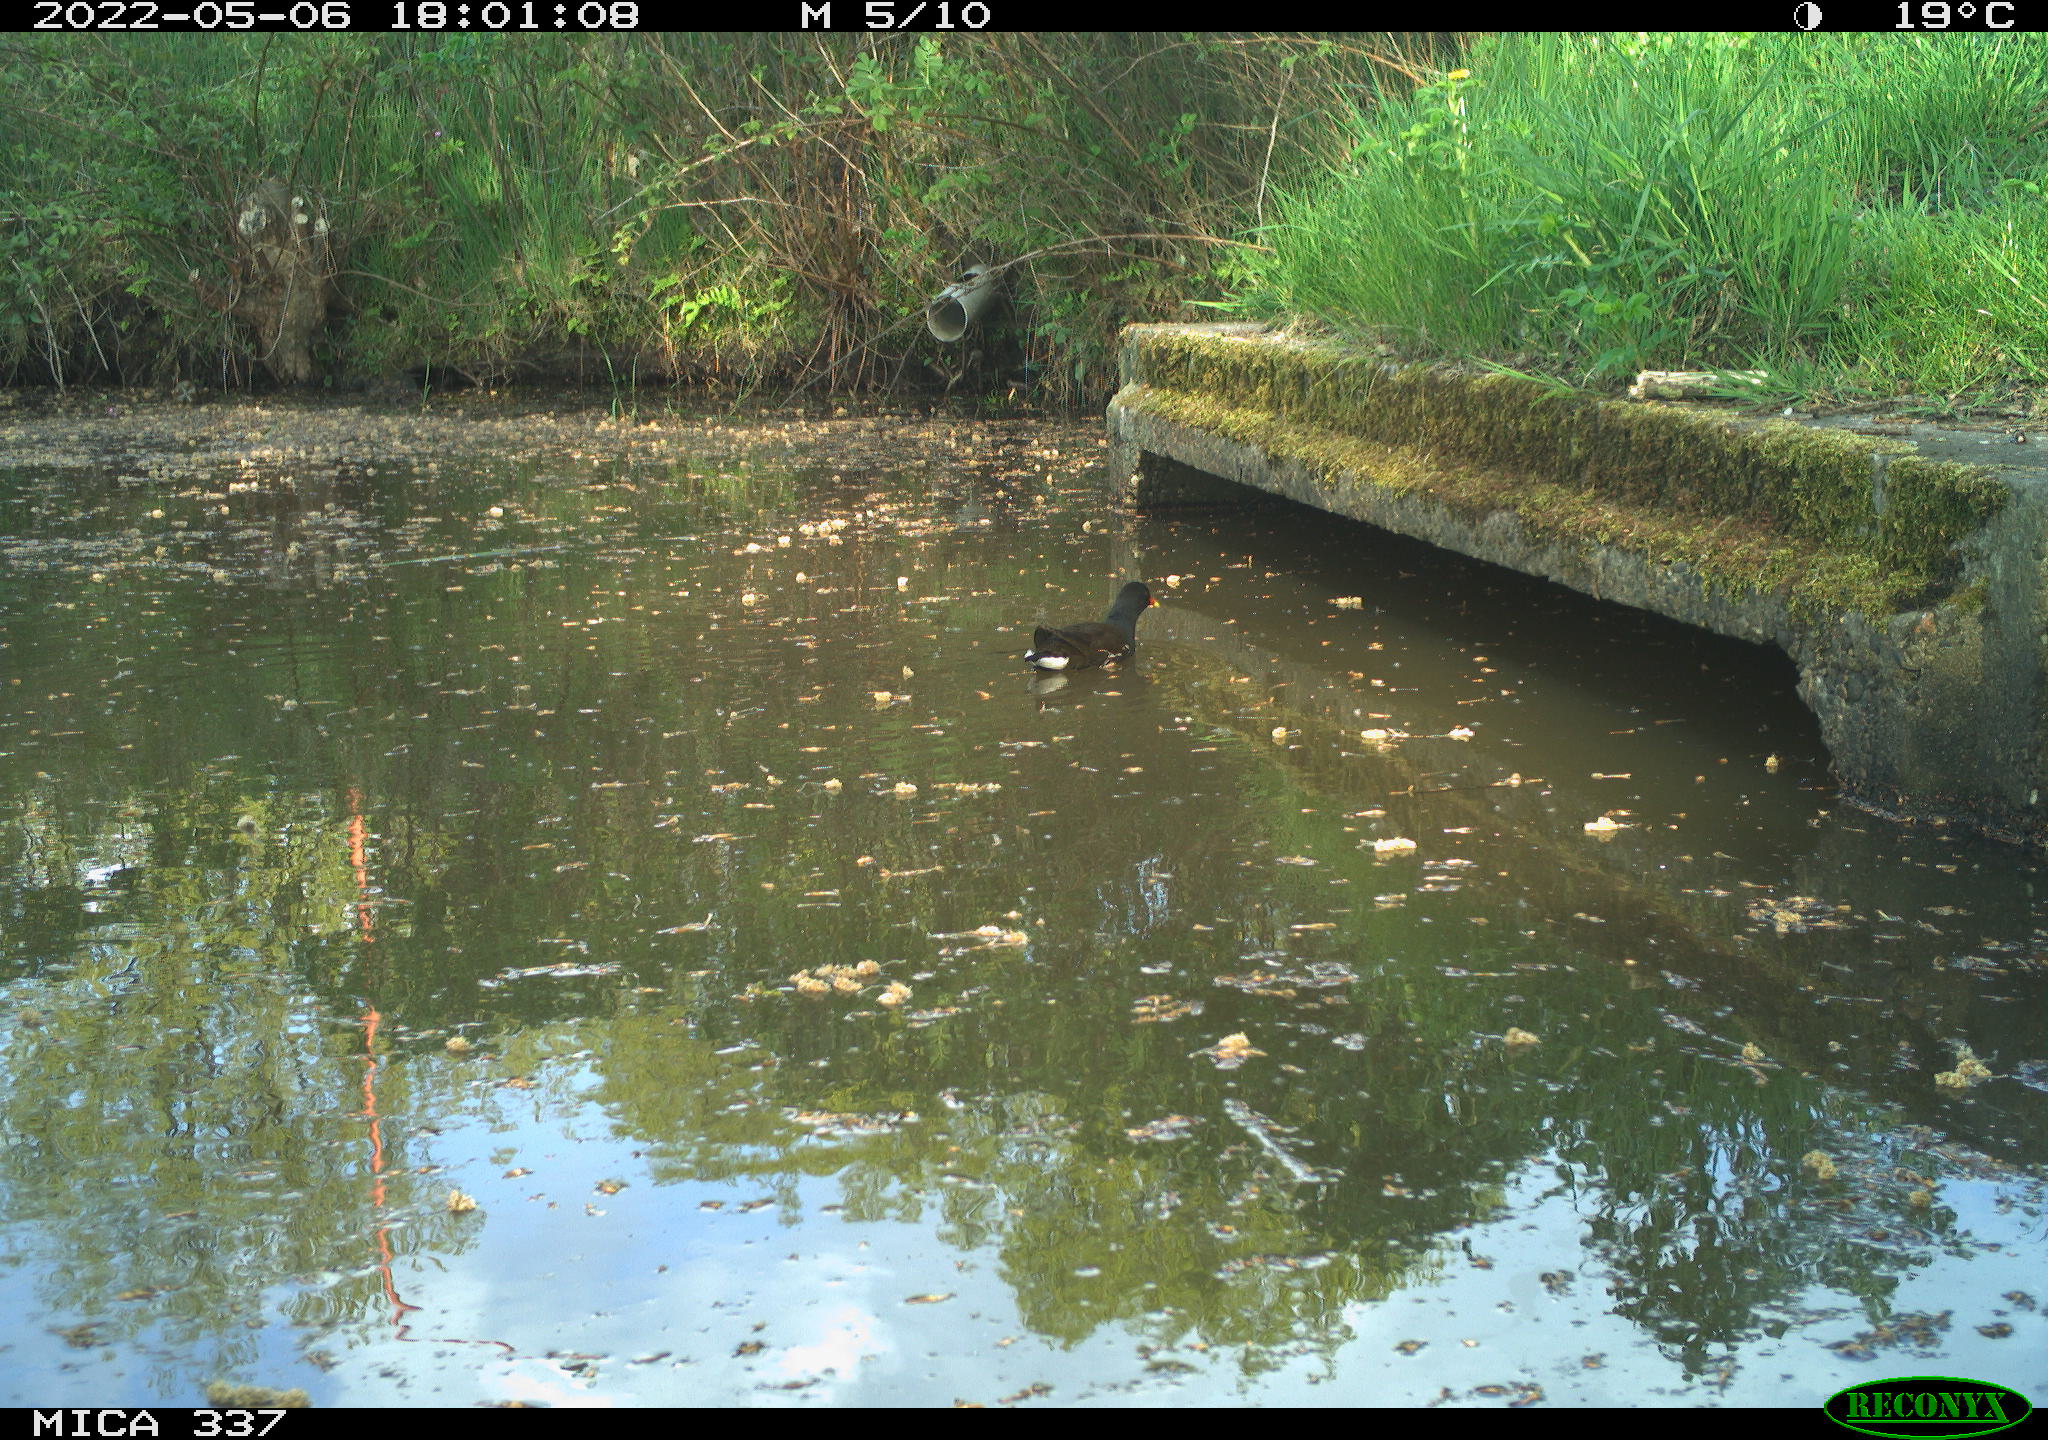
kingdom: Animalia
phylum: Chordata
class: Aves
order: Gruiformes
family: Rallidae
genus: Gallinula
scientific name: Gallinula chloropus
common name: Common moorhen
